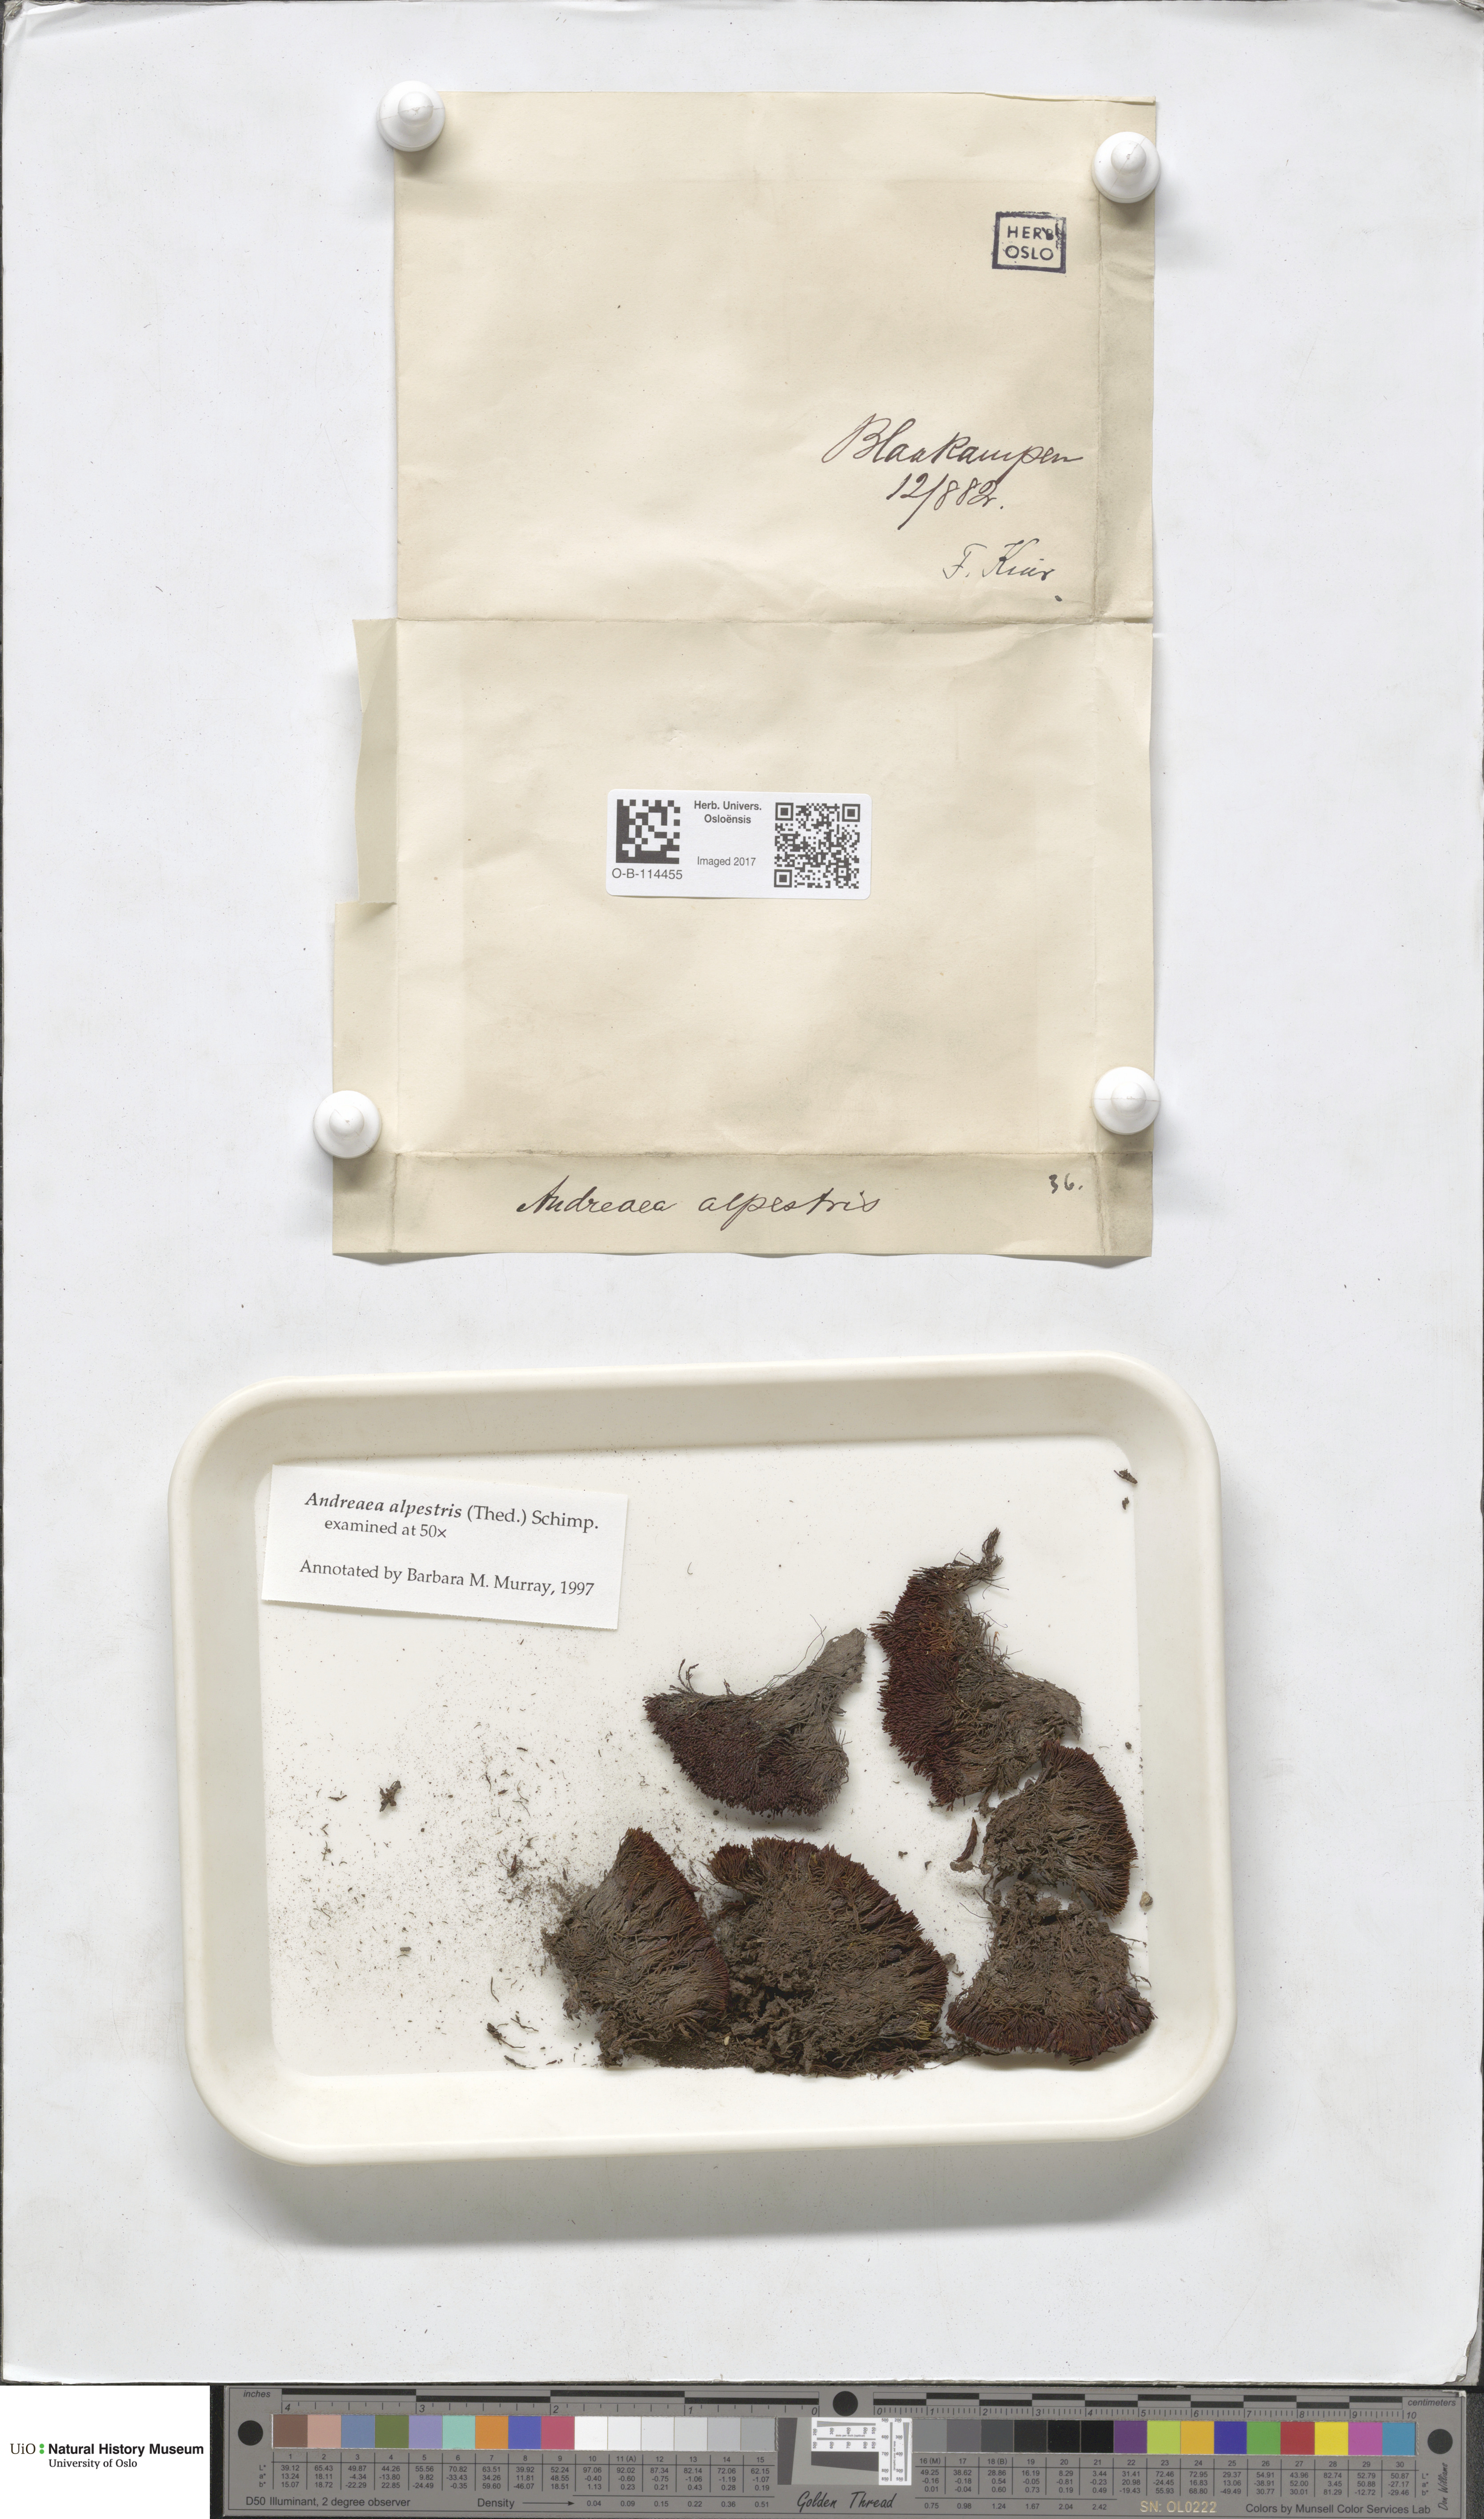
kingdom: Plantae
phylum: Bryophyta
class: Andreaeopsida
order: Andreaeales
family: Andreaeaceae
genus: Andreaea
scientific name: Andreaea alpestris
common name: Slender rock-moss
